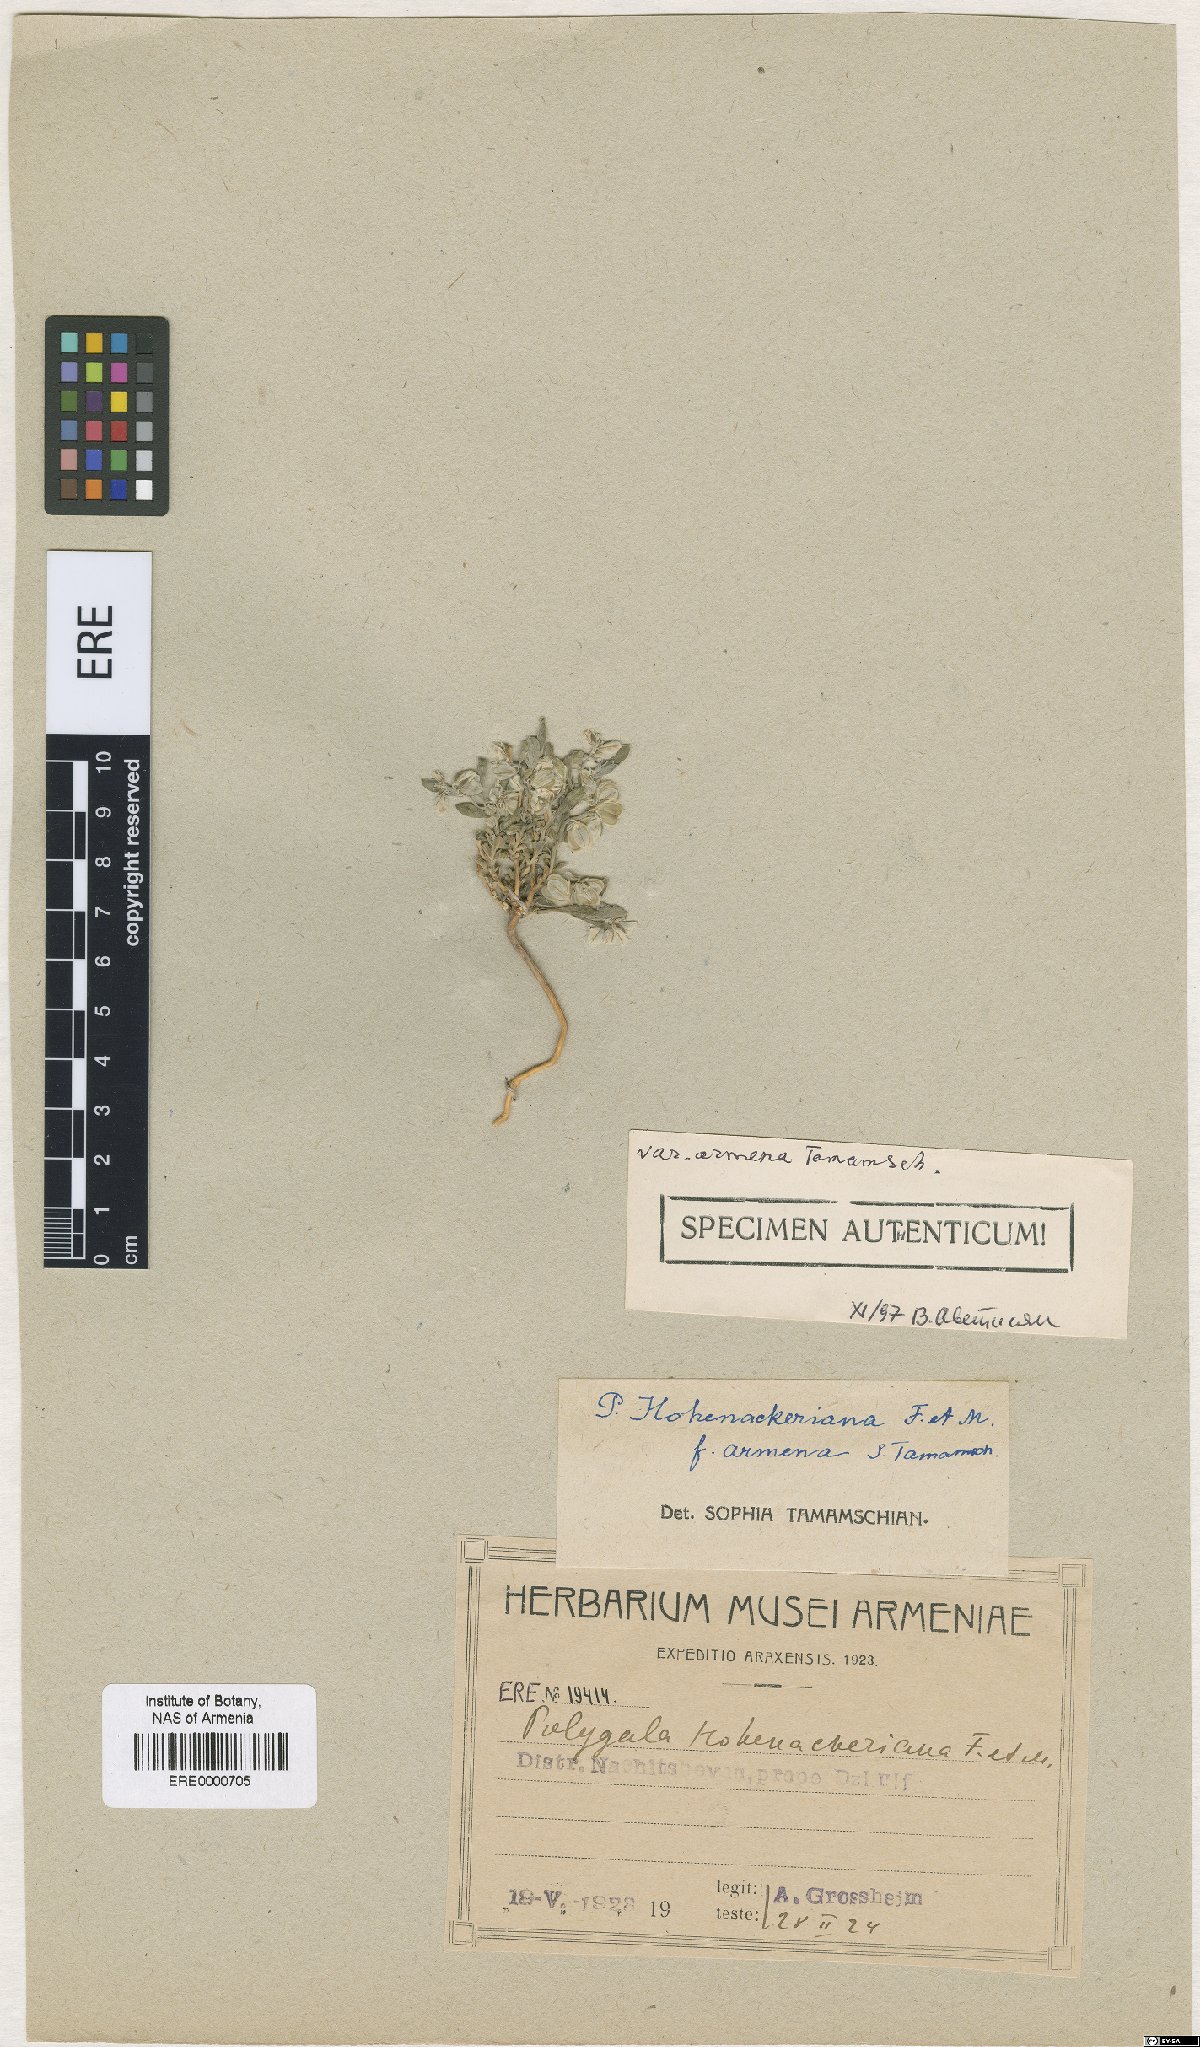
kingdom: Plantae
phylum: Tracheophyta
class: Magnoliopsida
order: Fabales
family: Polygalaceae
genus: Polygala
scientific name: Polygala hohenackeriana
